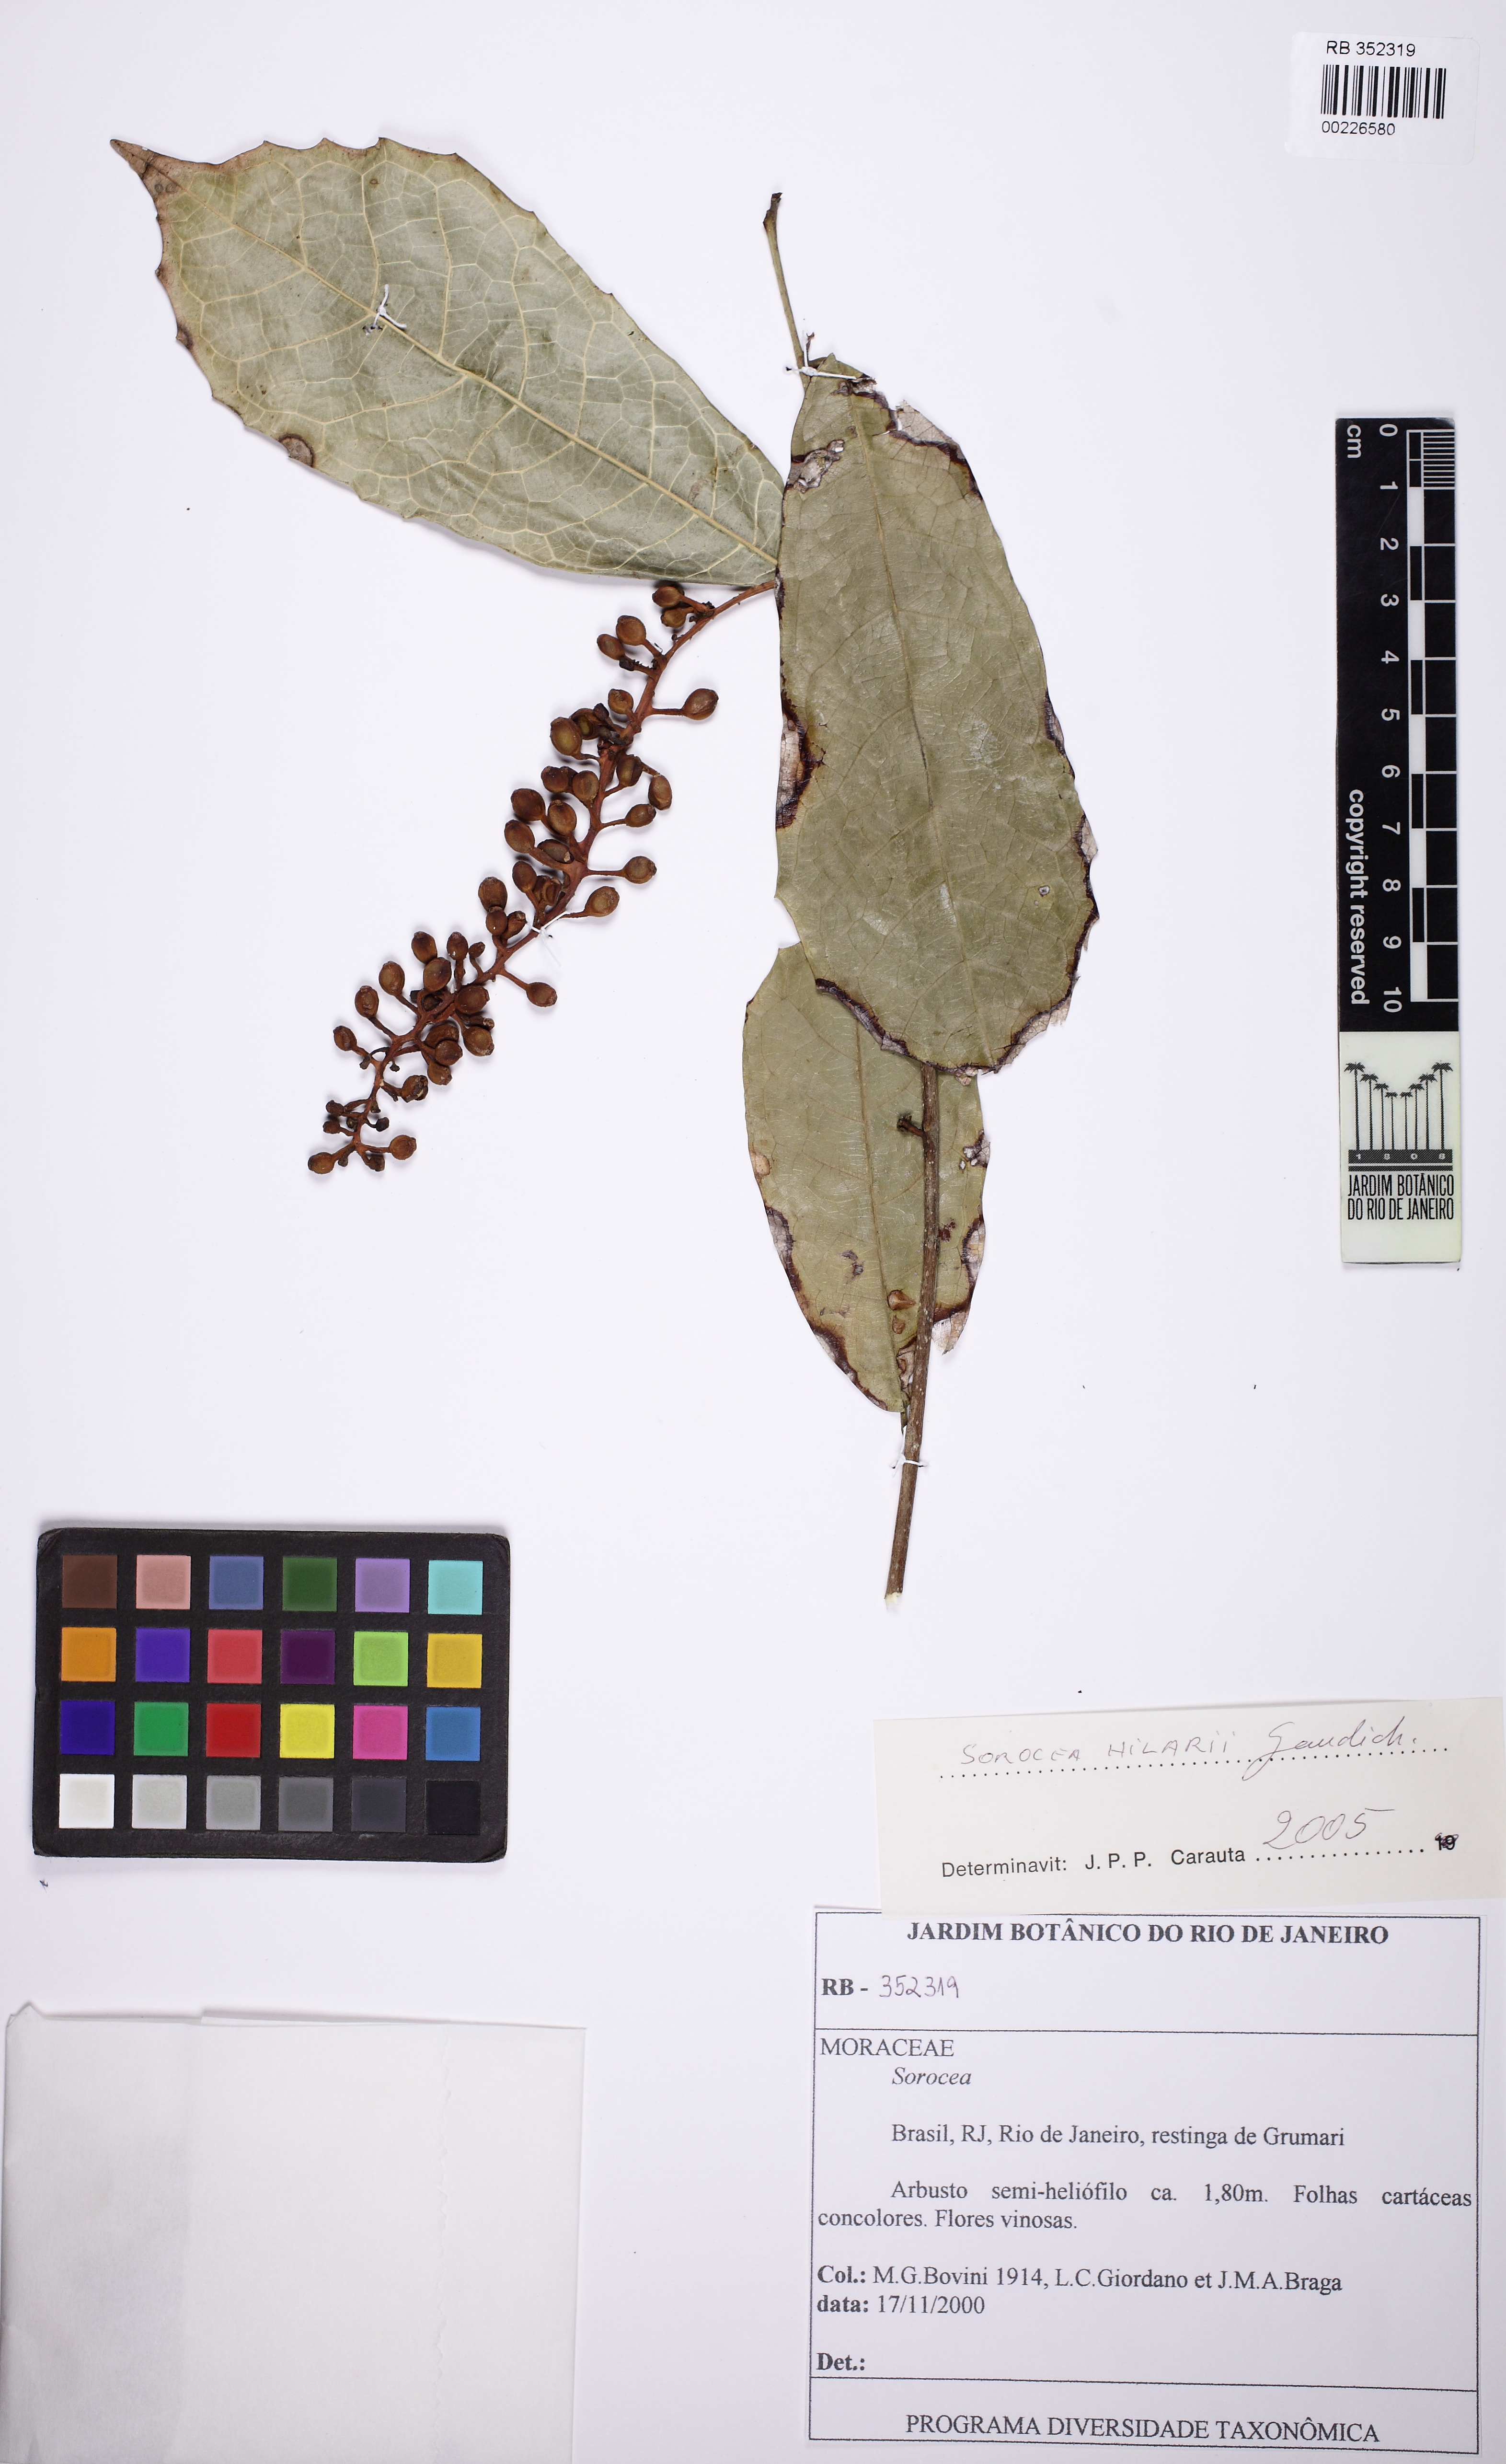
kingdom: Plantae
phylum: Tracheophyta
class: Magnoliopsida
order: Rosales
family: Moraceae
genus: Sorocea
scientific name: Sorocea hilarii
